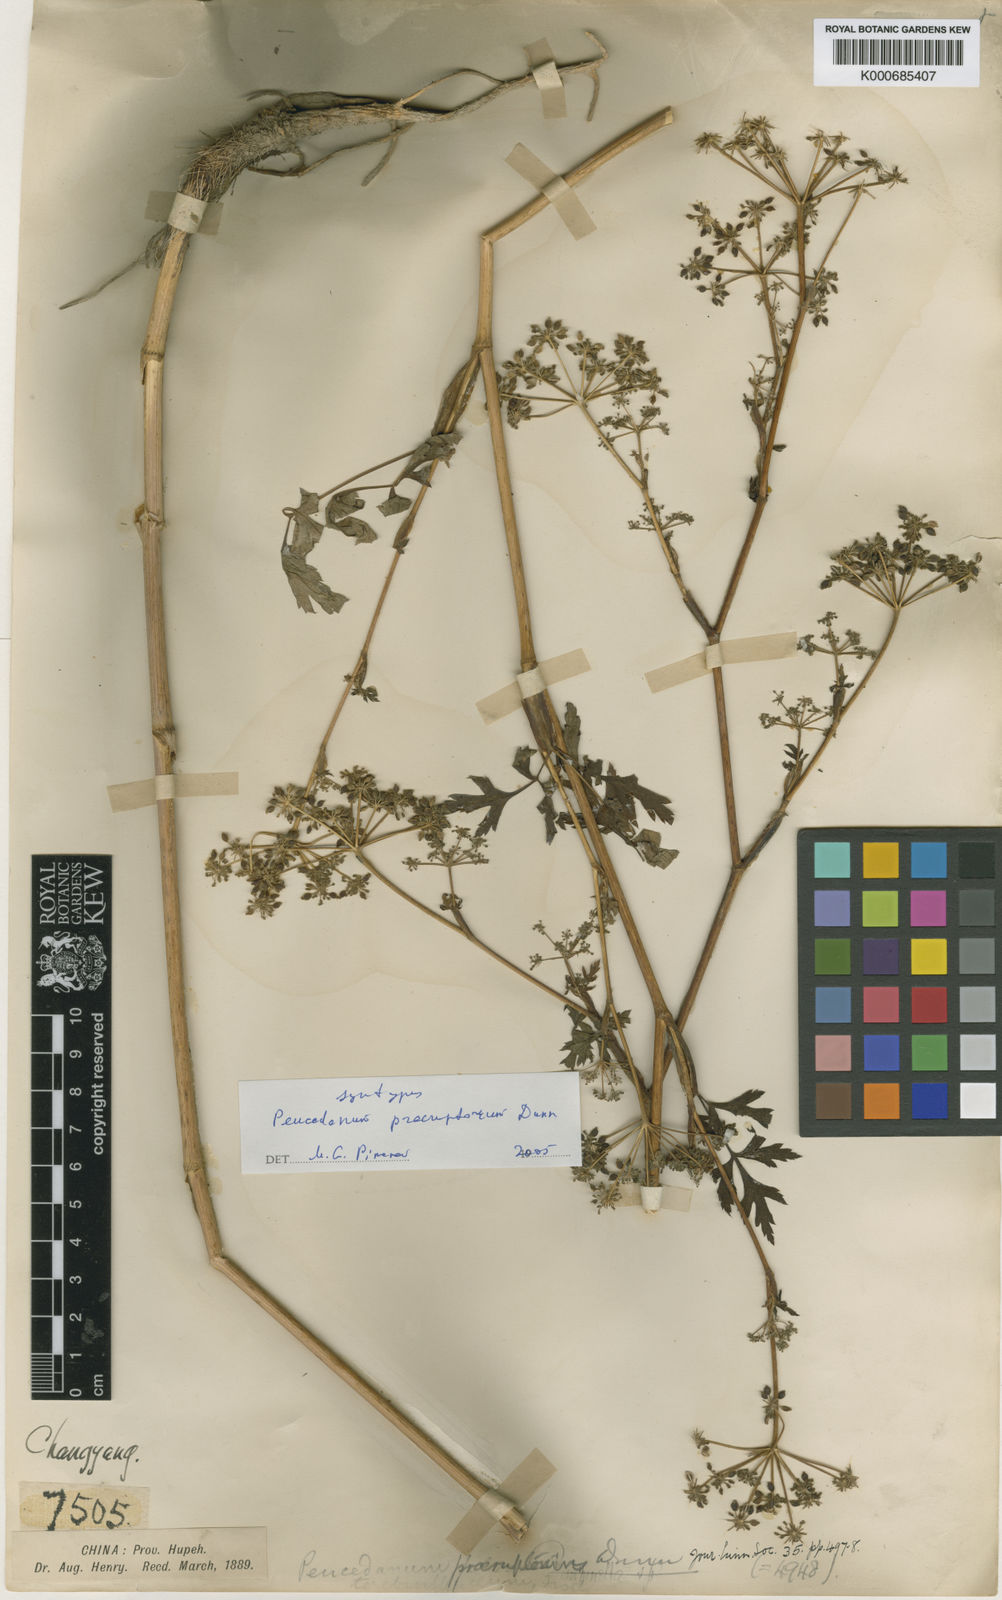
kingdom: Plantae
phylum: Tracheophyta
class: Magnoliopsida
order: Apiales
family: Apiaceae
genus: Kitagawia
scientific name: Kitagawia praeruptora
